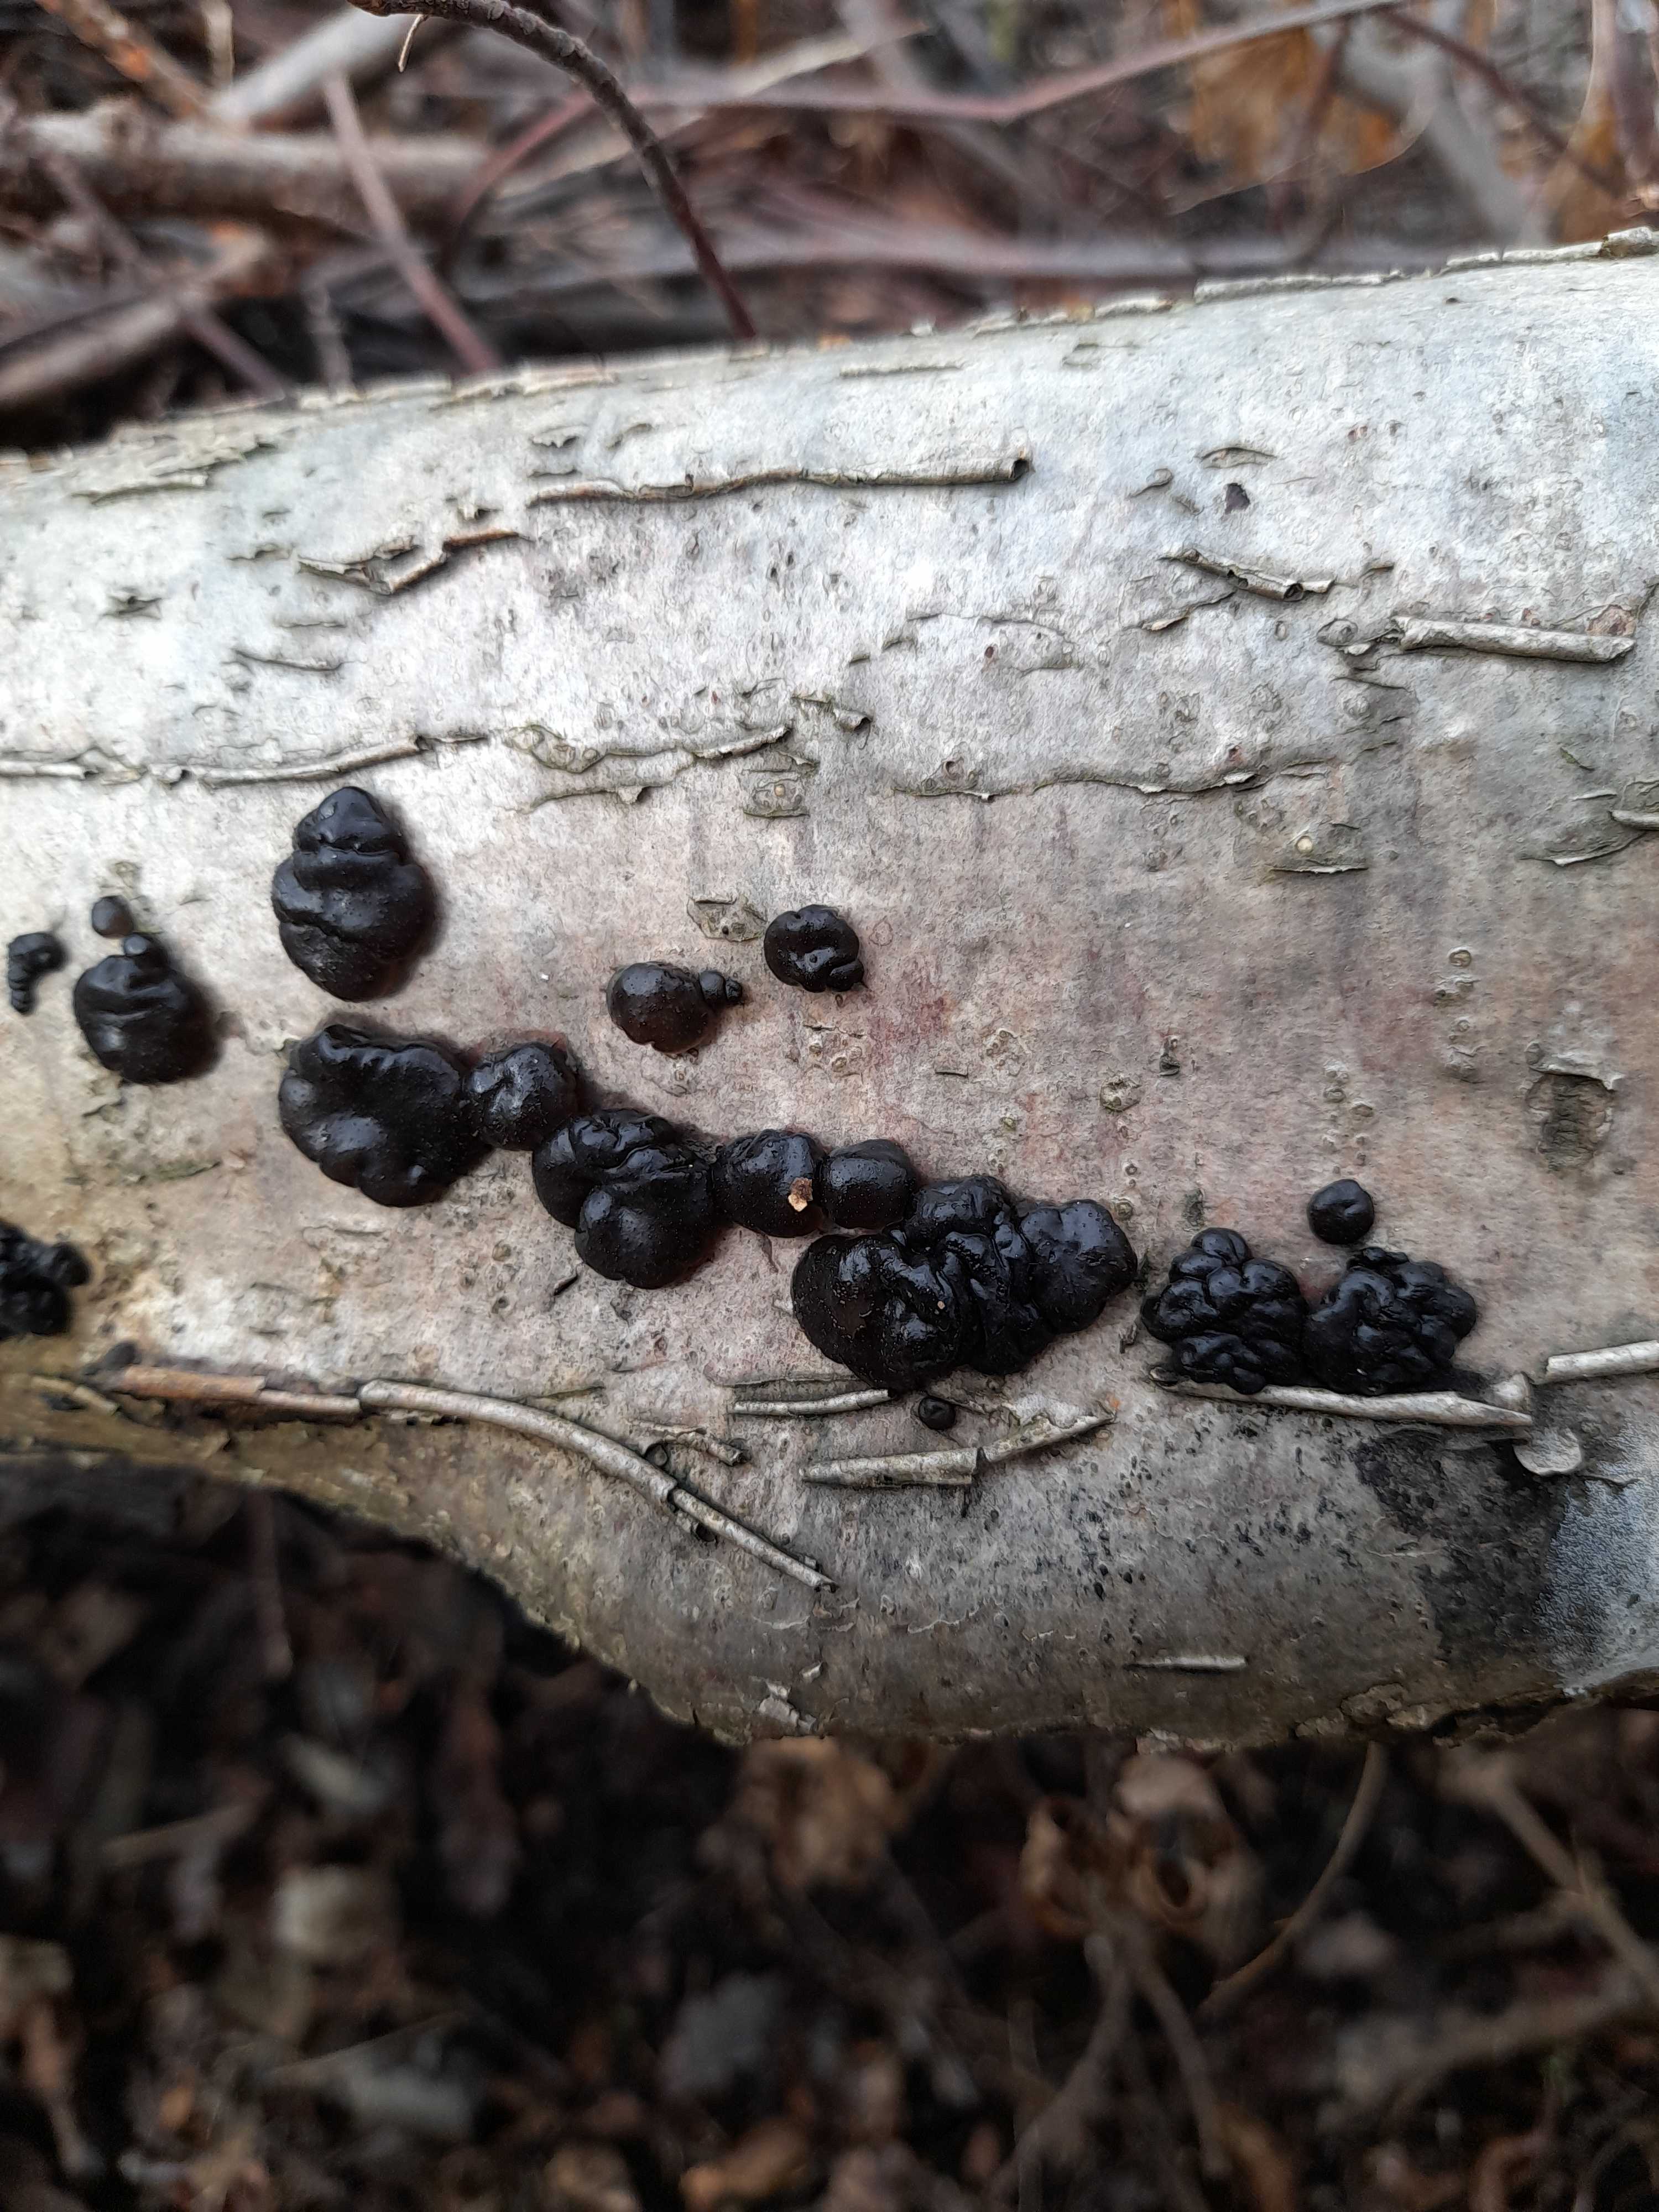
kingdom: Fungi
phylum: Basidiomycota
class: Agaricomycetes
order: Auriculariales
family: Auriculariaceae
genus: Exidia
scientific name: Exidia nigricans
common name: almindelig bævretop
